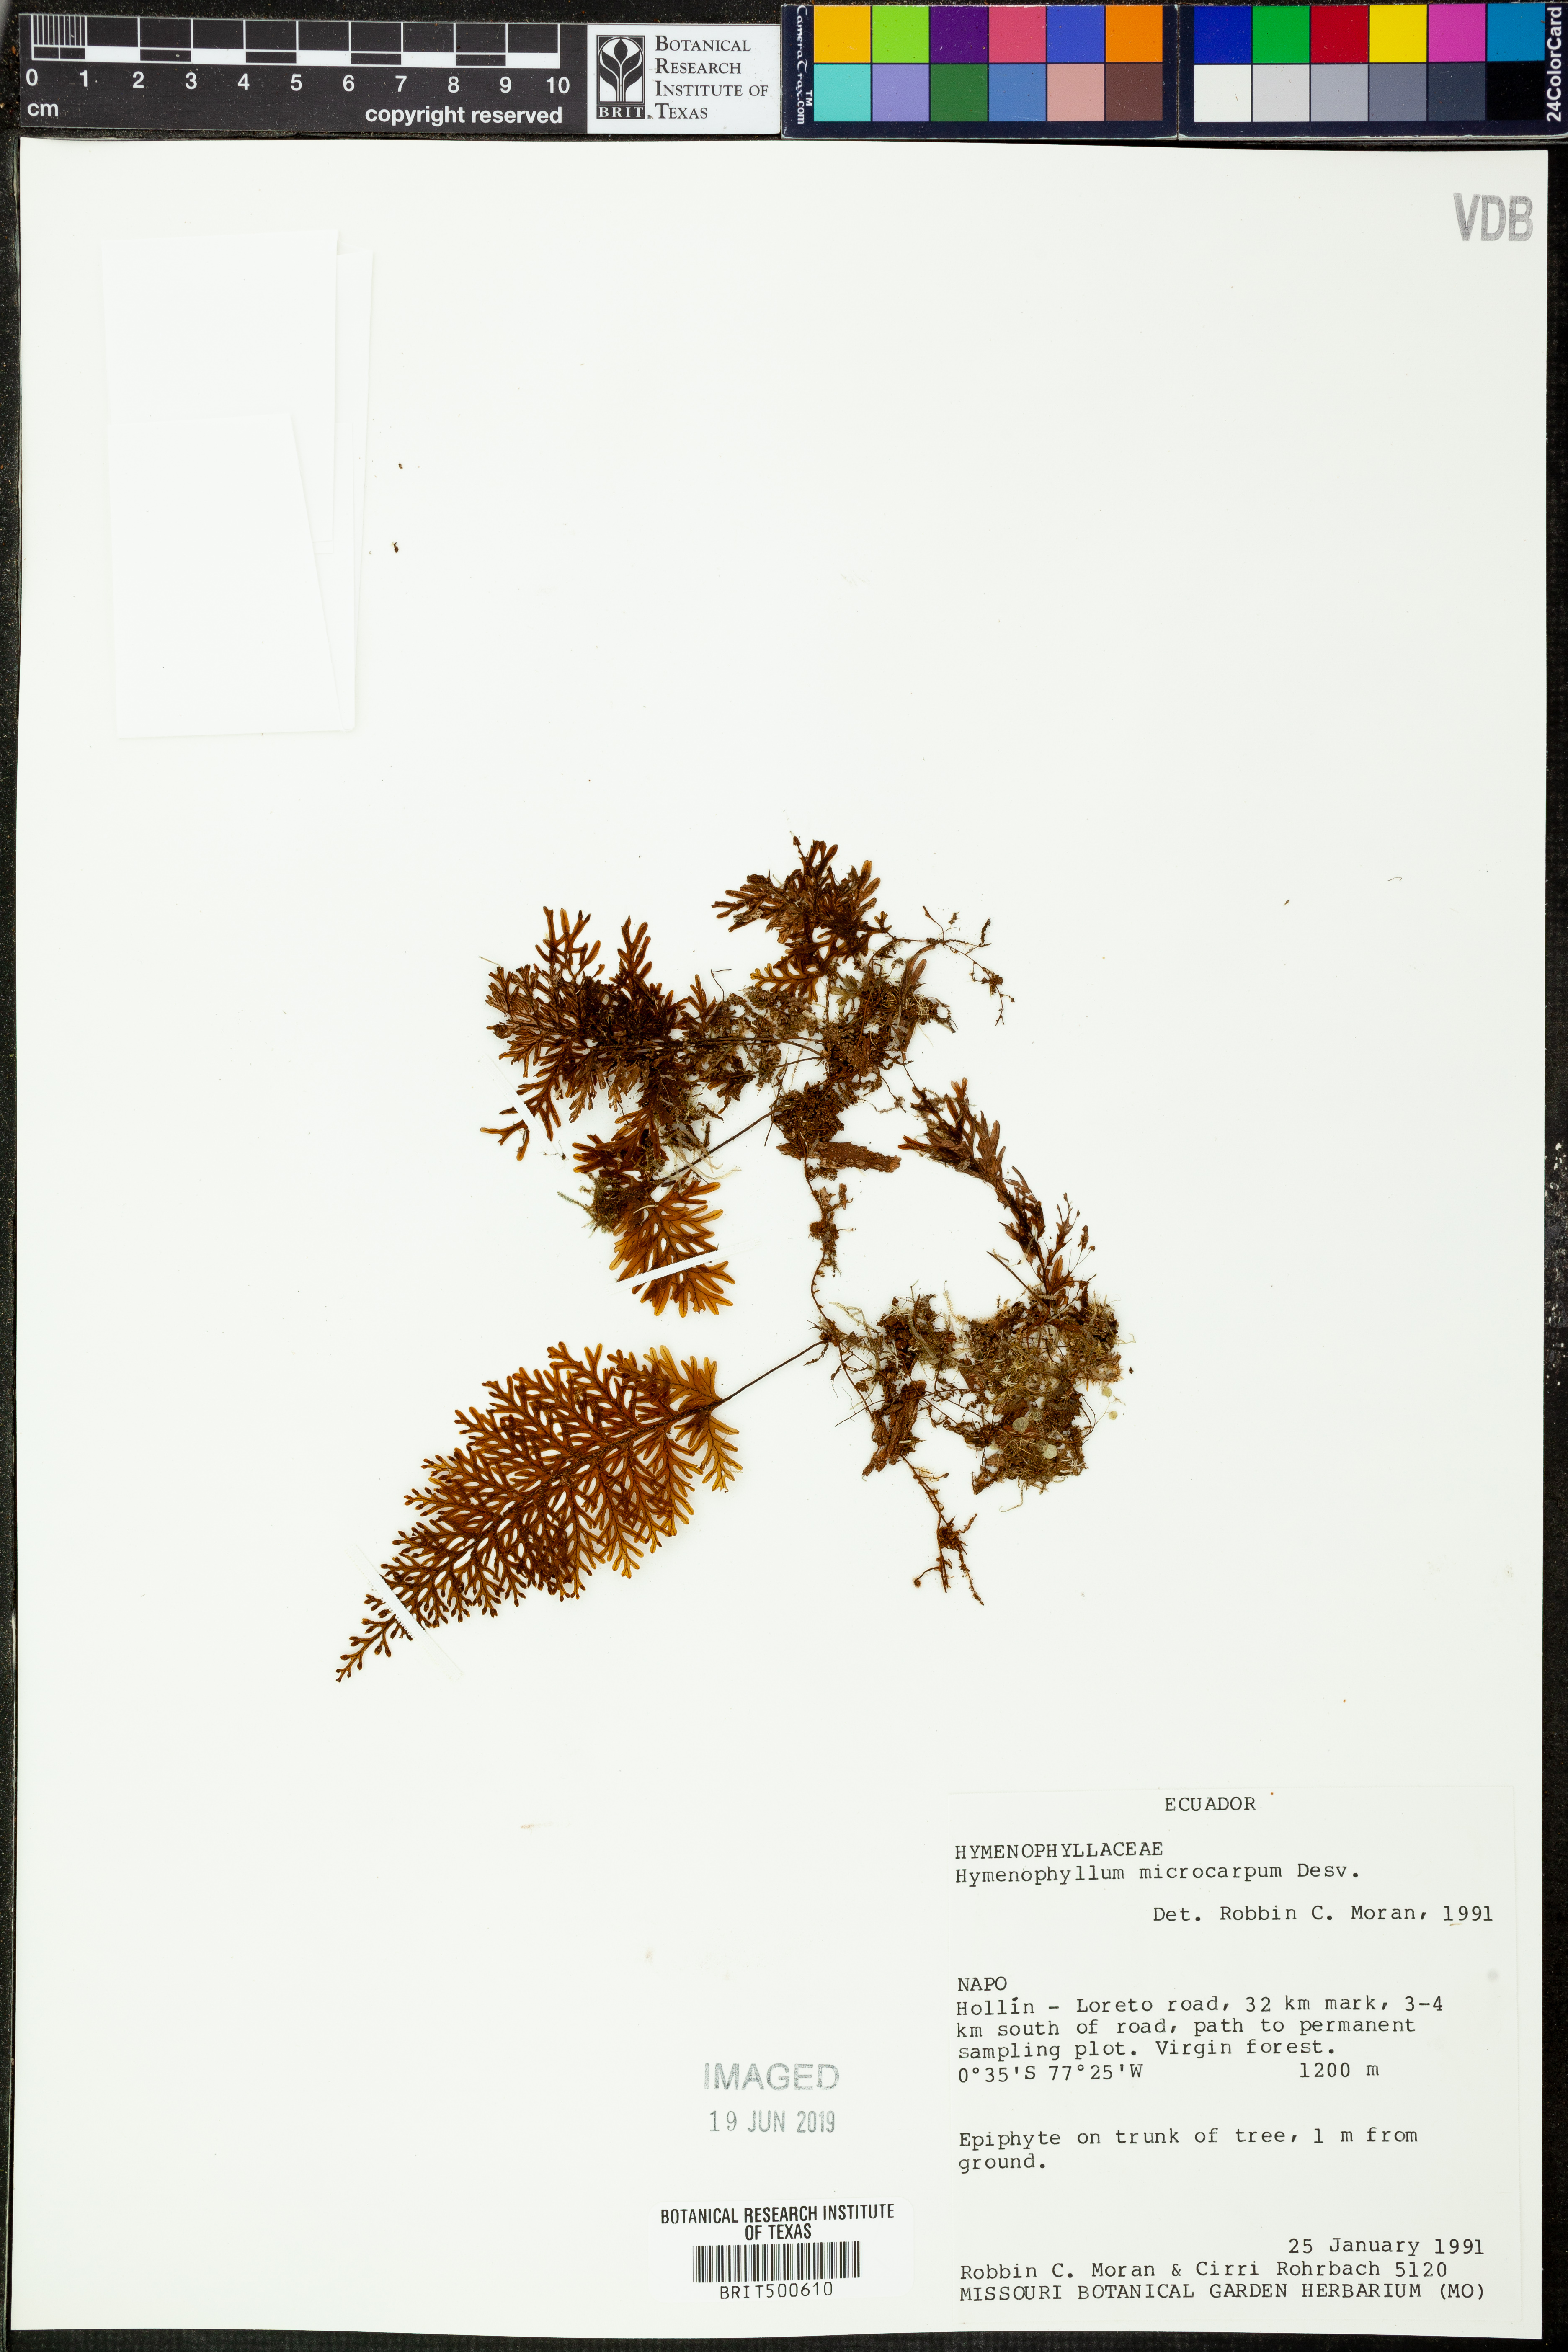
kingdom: Plantae
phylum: Tracheophyta
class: Polypodiopsida
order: Hymenophyllales
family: Hymenophyllaceae
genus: Hymenophyllum
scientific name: Hymenophyllum microcarpum
